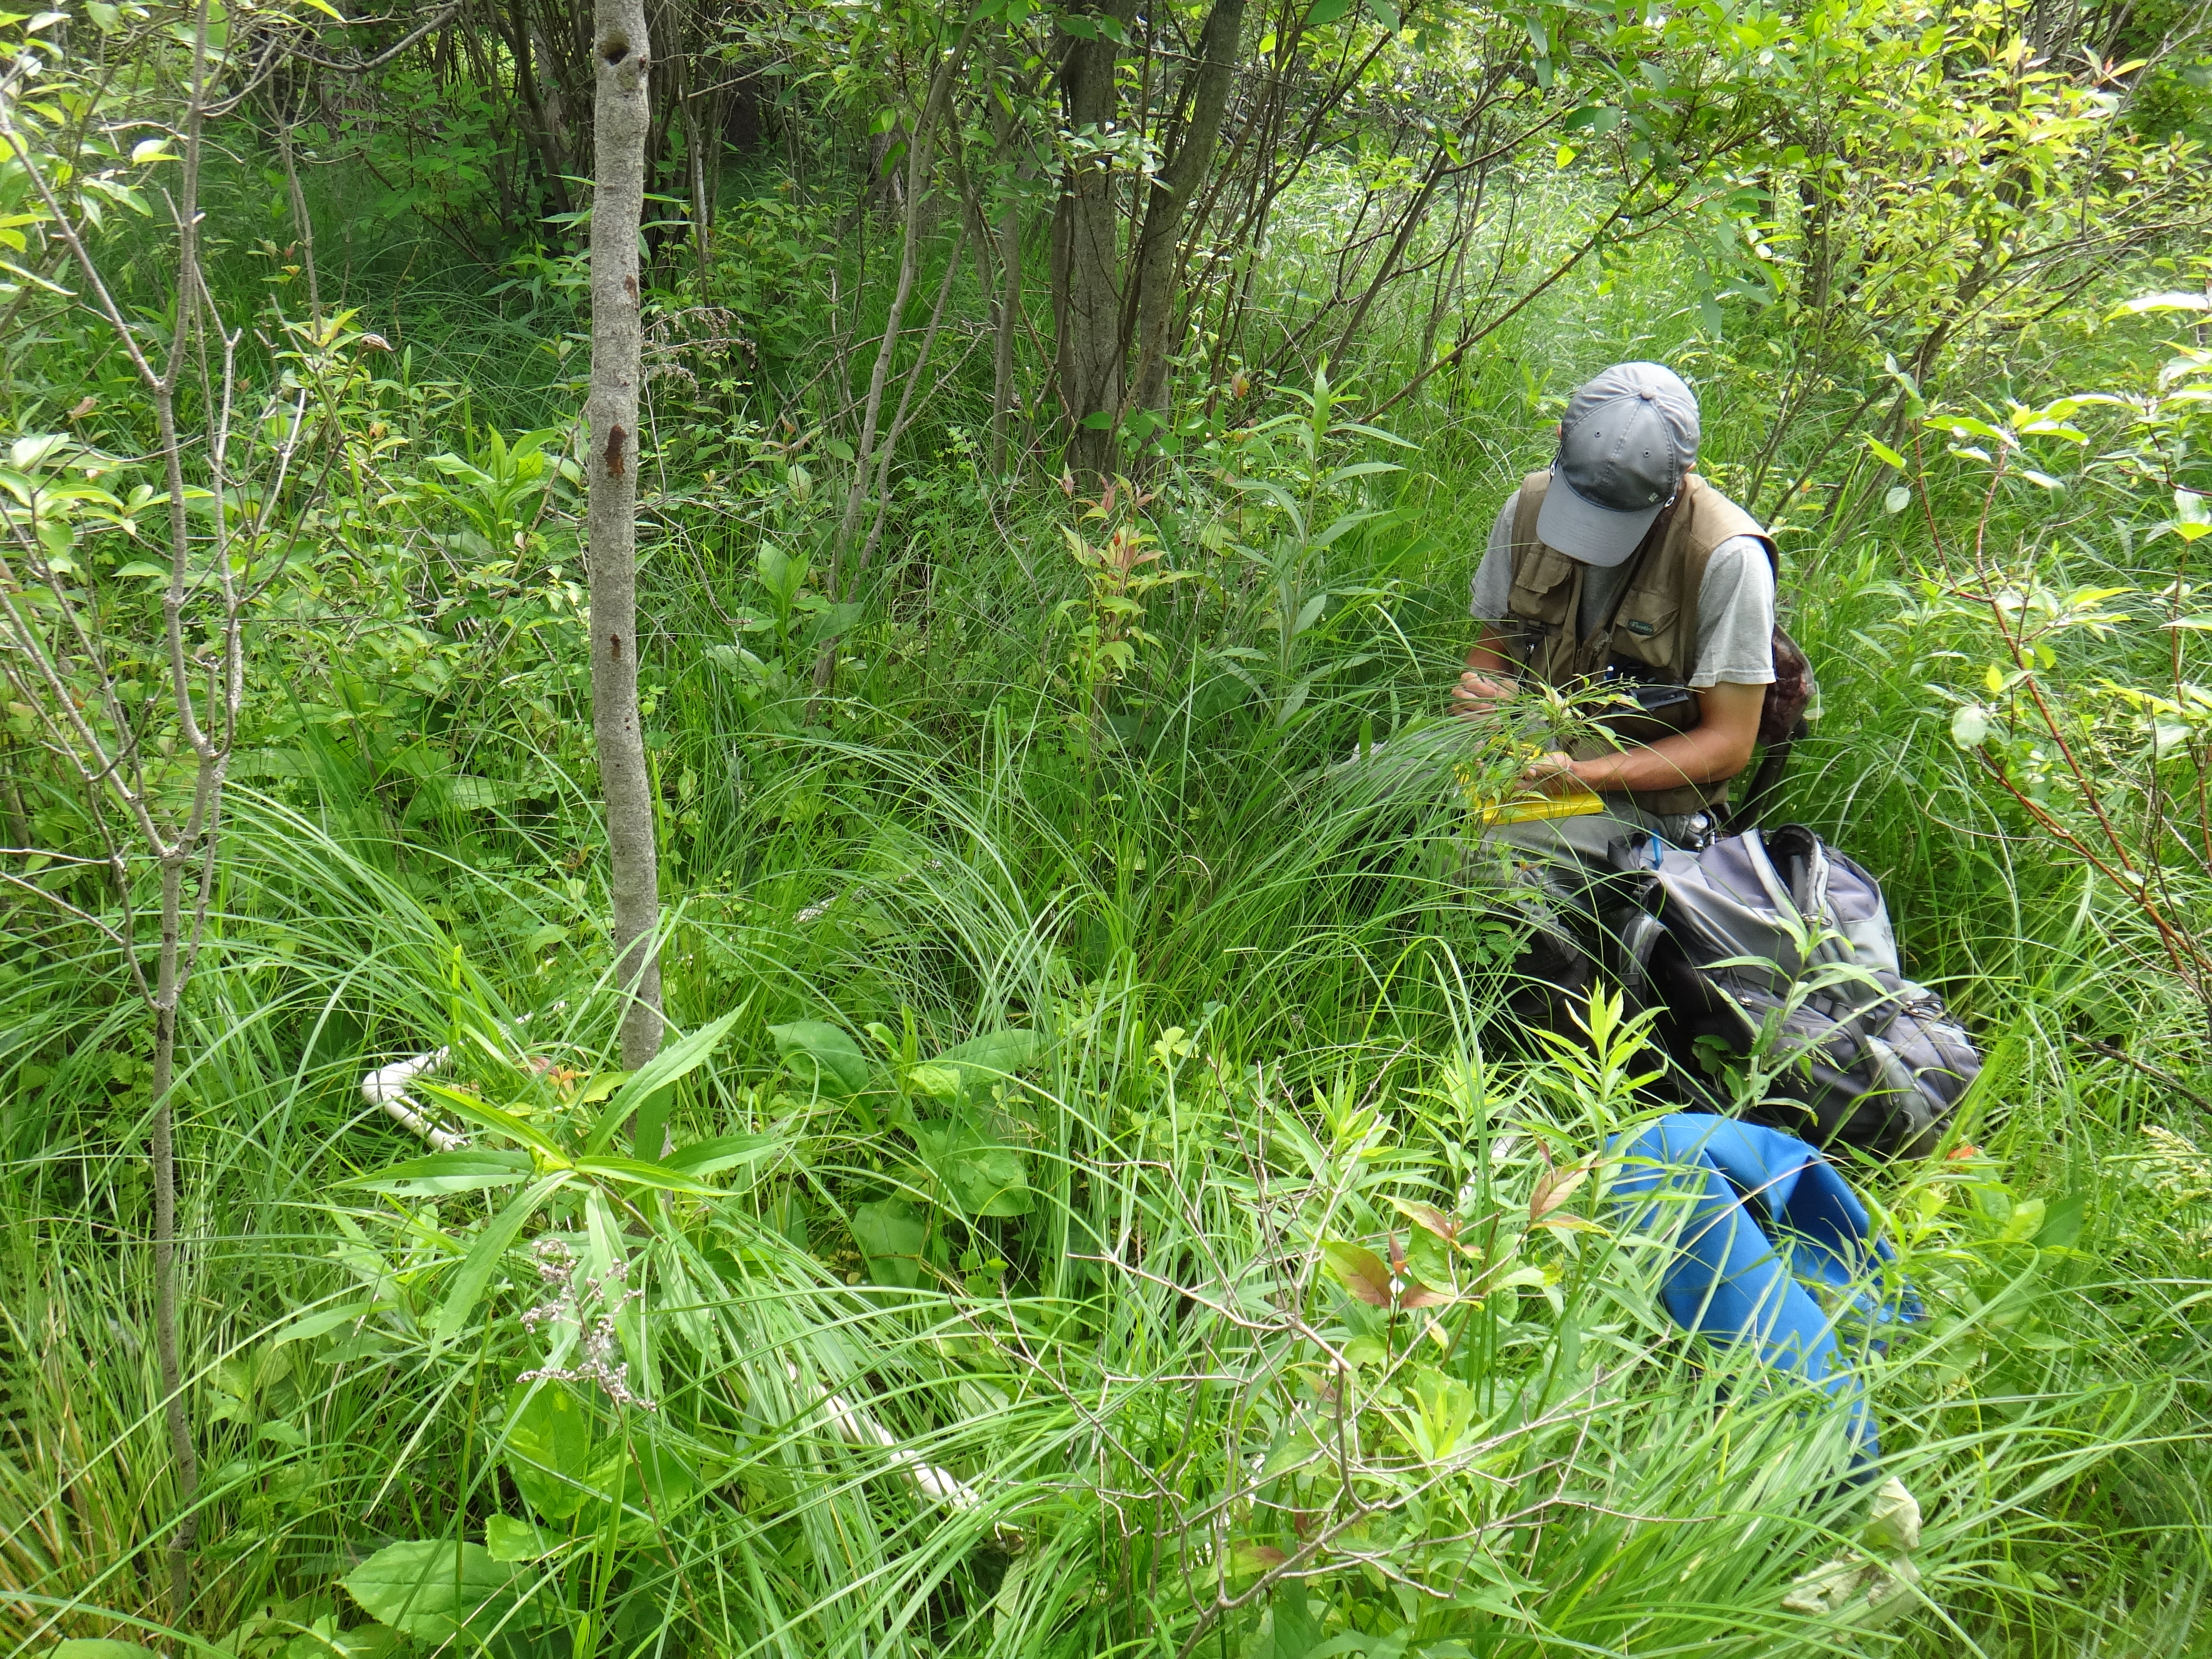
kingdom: Plantae
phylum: Tracheophyta
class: Magnoliopsida
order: Rosales
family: Rosaceae
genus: Rubus
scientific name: Rubus pubescens
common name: Dwarf raspberry
